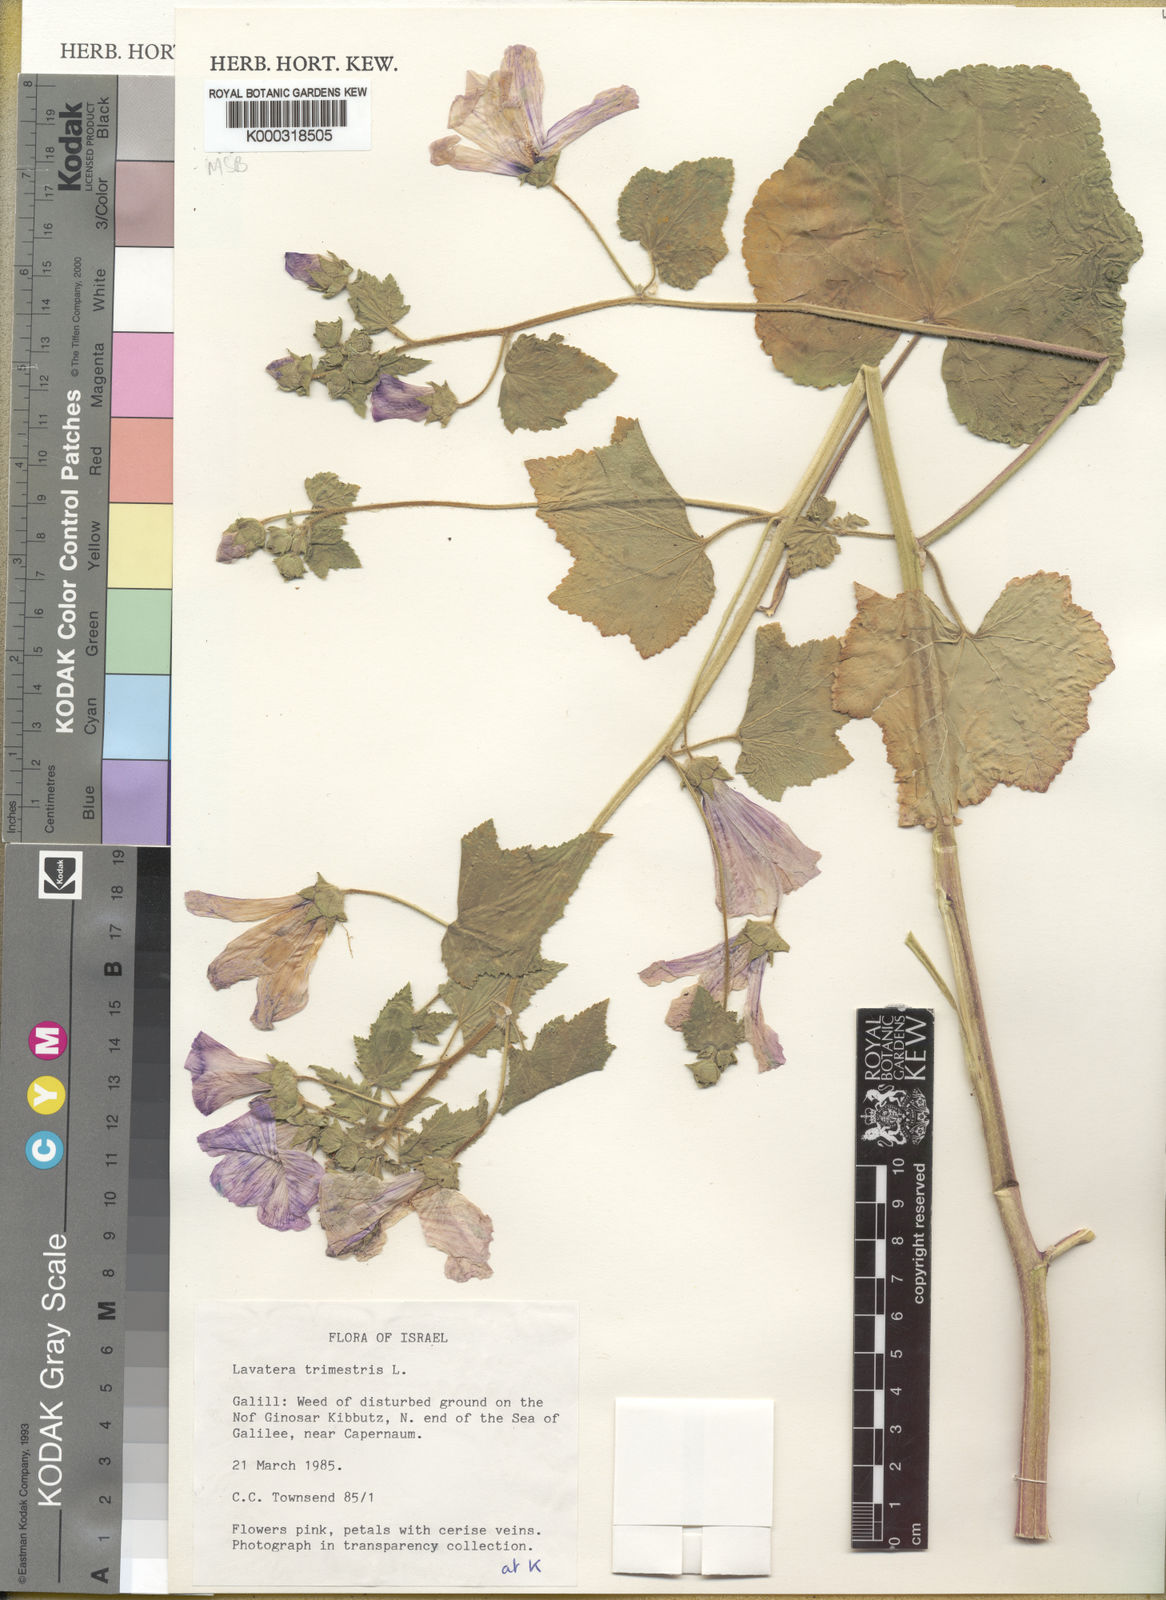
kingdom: Plantae
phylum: Tracheophyta
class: Magnoliopsida
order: Malvales
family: Malvaceae
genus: Malva
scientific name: Malva trimestris
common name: Royal mallow
